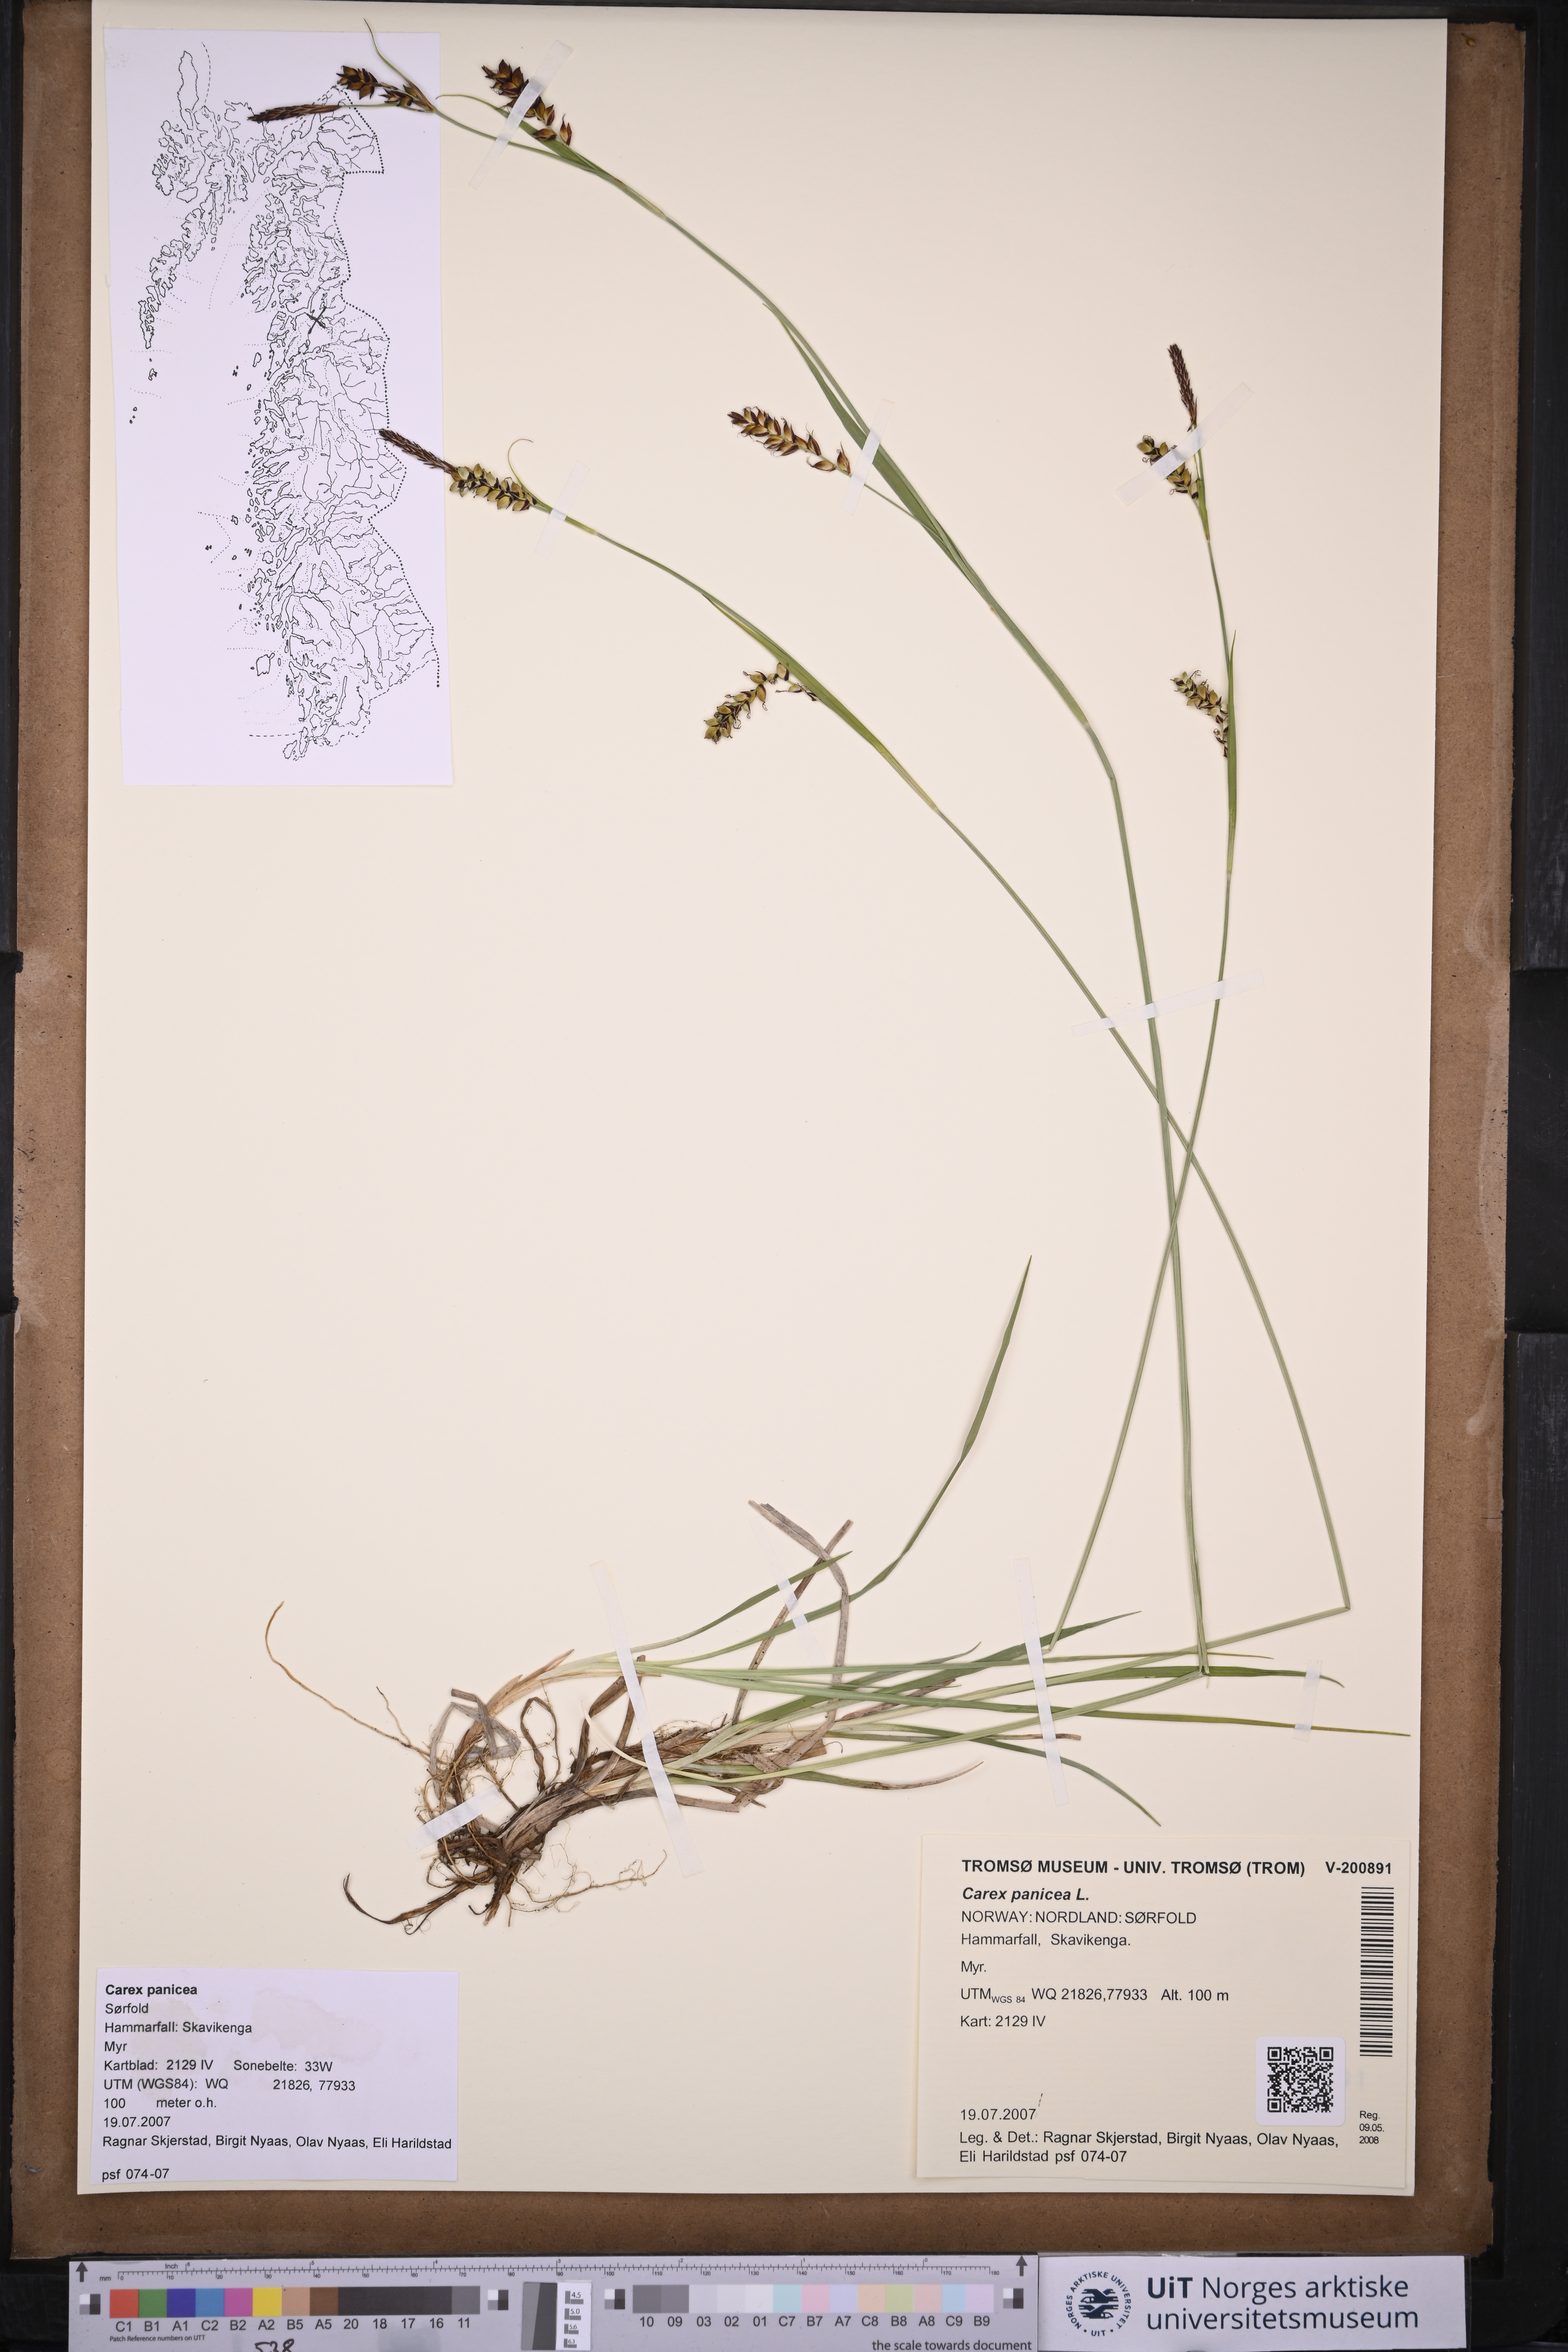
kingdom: Plantae
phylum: Tracheophyta
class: Liliopsida
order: Poales
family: Cyperaceae
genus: Carex
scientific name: Carex panicea
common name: Carnation sedge
